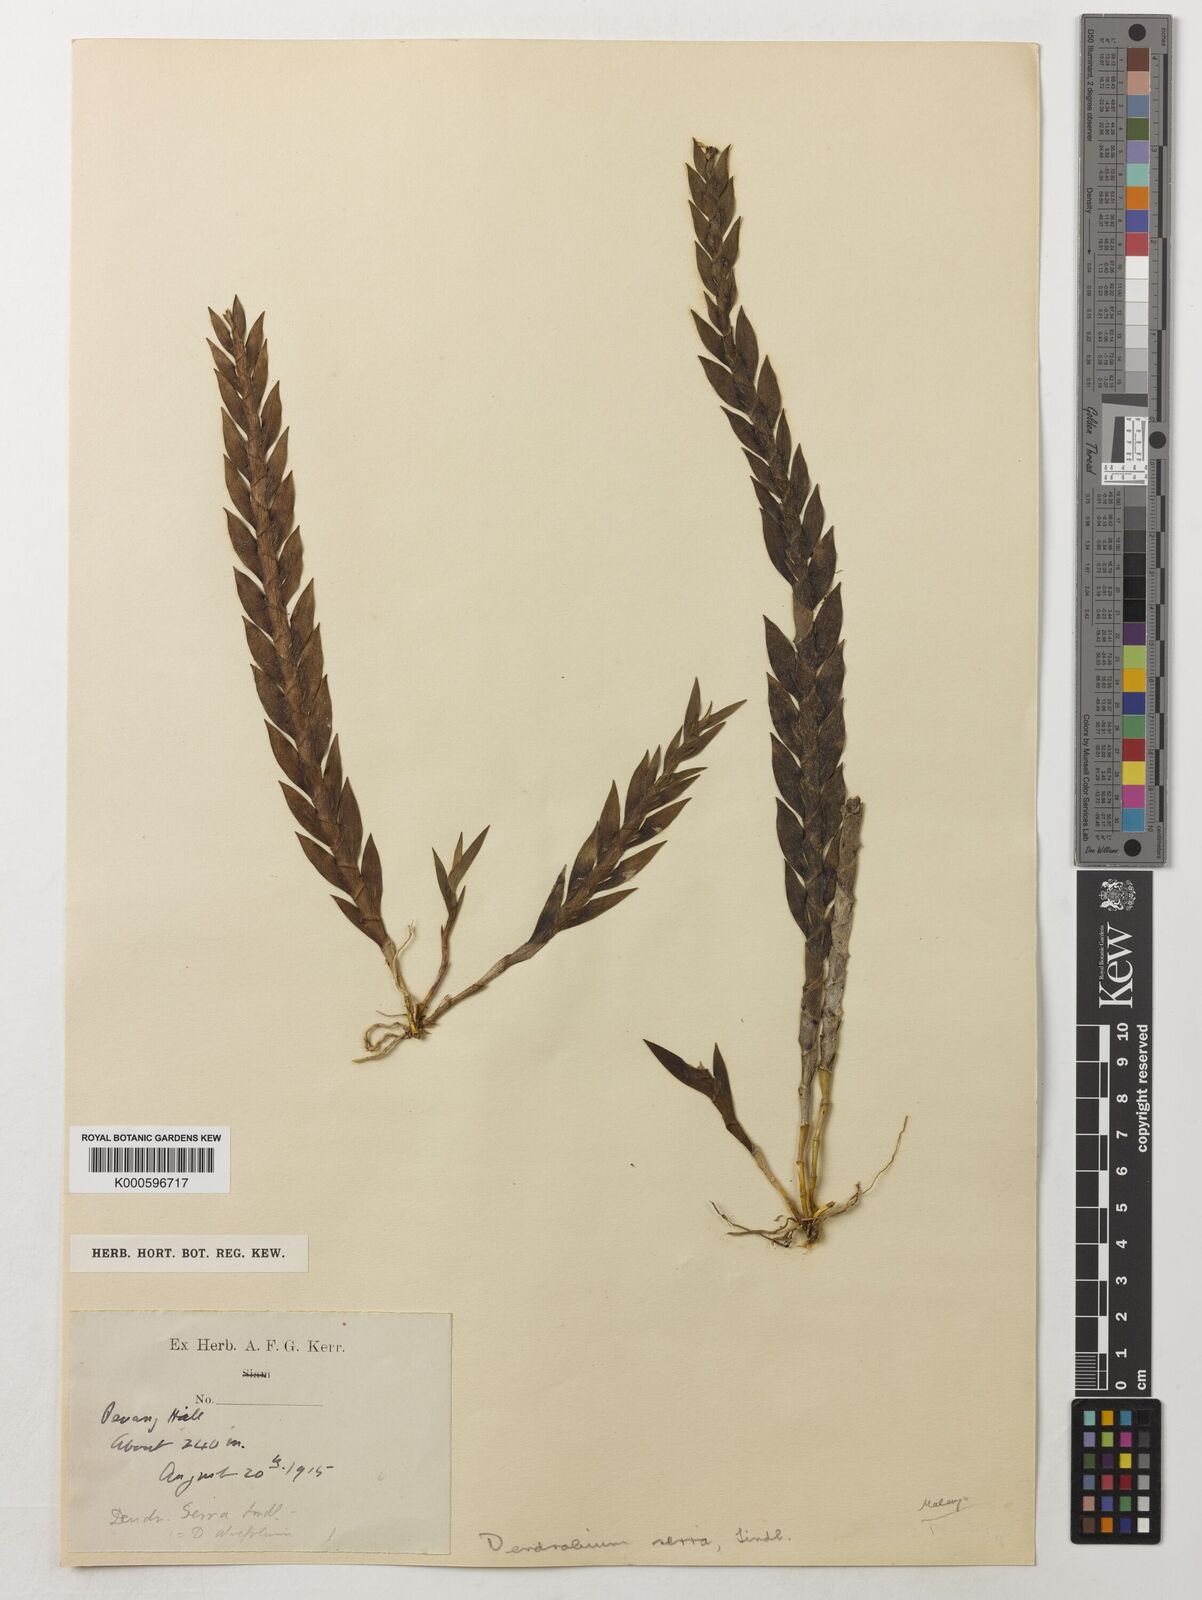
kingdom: Plantae
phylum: Tracheophyta
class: Liliopsida
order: Asparagales
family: Orchidaceae
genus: Dendrobium
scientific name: Dendrobium aloifolium
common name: Aloe-like dendrobium
